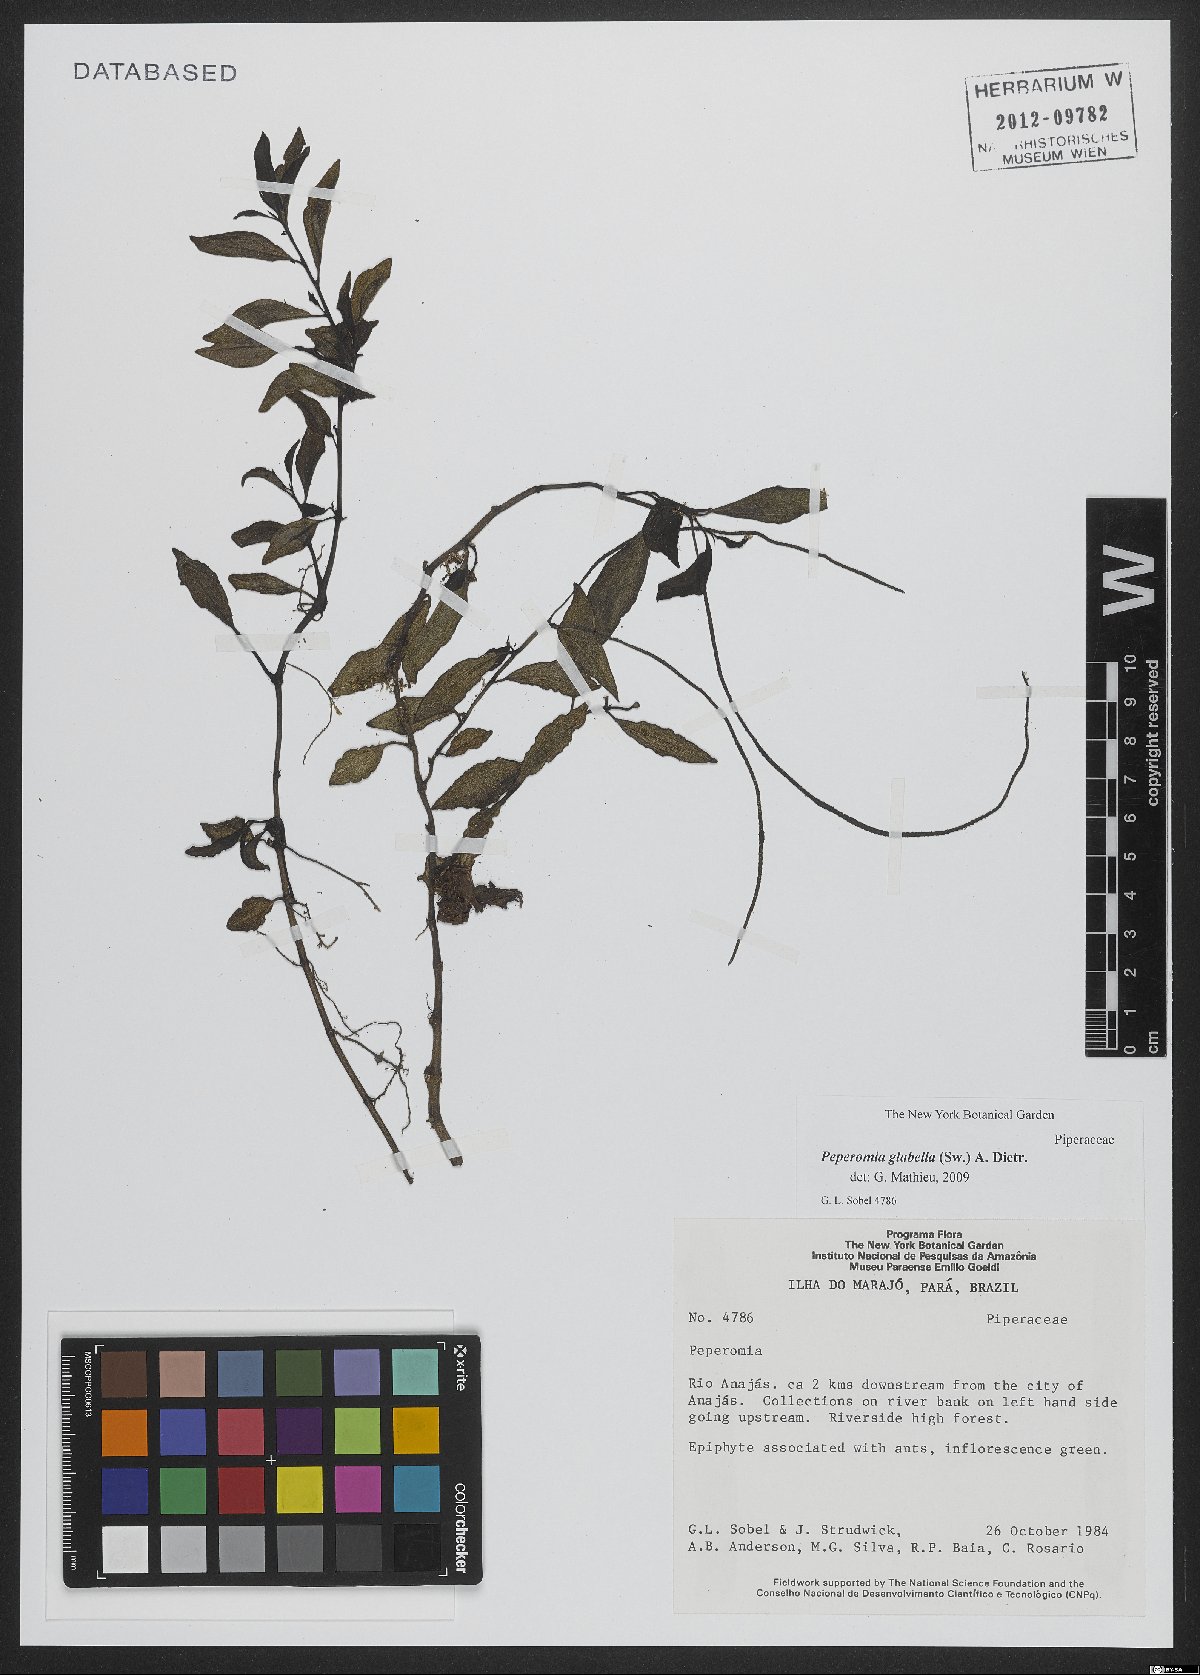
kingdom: Plantae
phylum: Tracheophyta
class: Magnoliopsida
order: Piperales
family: Piperaceae
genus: Peperomia
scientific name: Peperomia glabella
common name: Cypress peperomia
